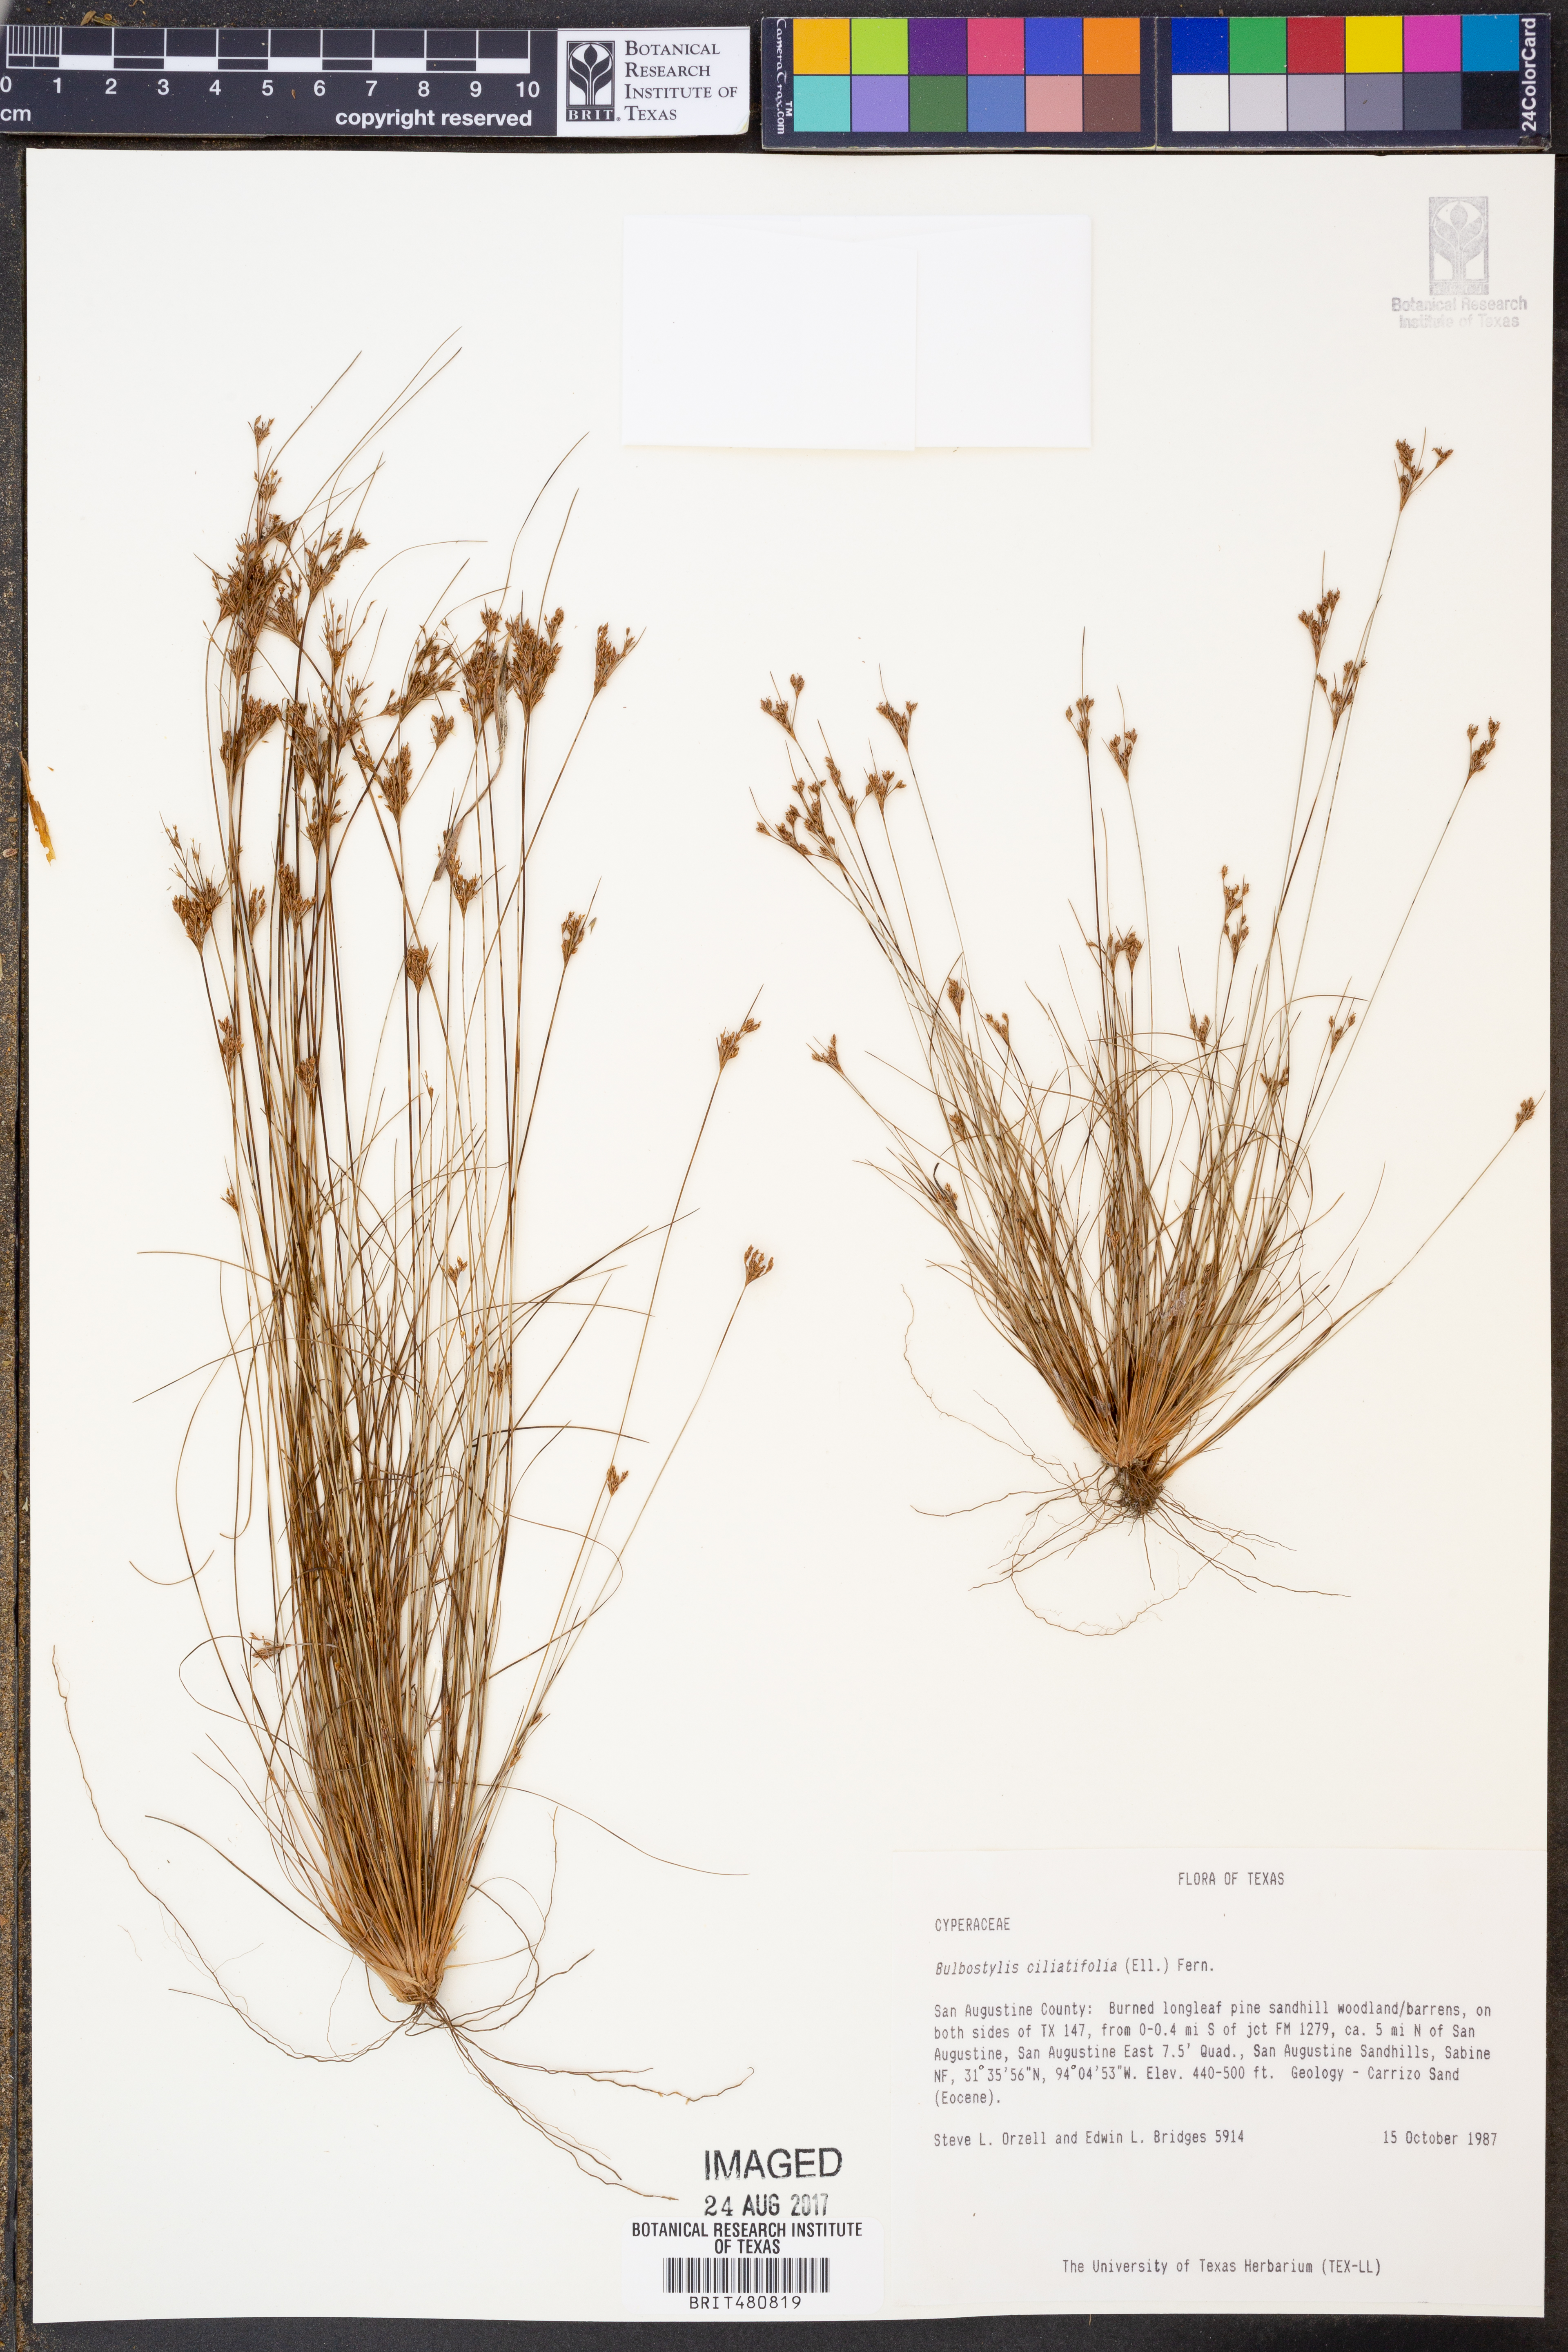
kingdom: Plantae
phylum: Tracheophyta
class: Liliopsida
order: Poales
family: Cyperaceae
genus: Bulbostylis
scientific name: Bulbostylis ciliatifolia
